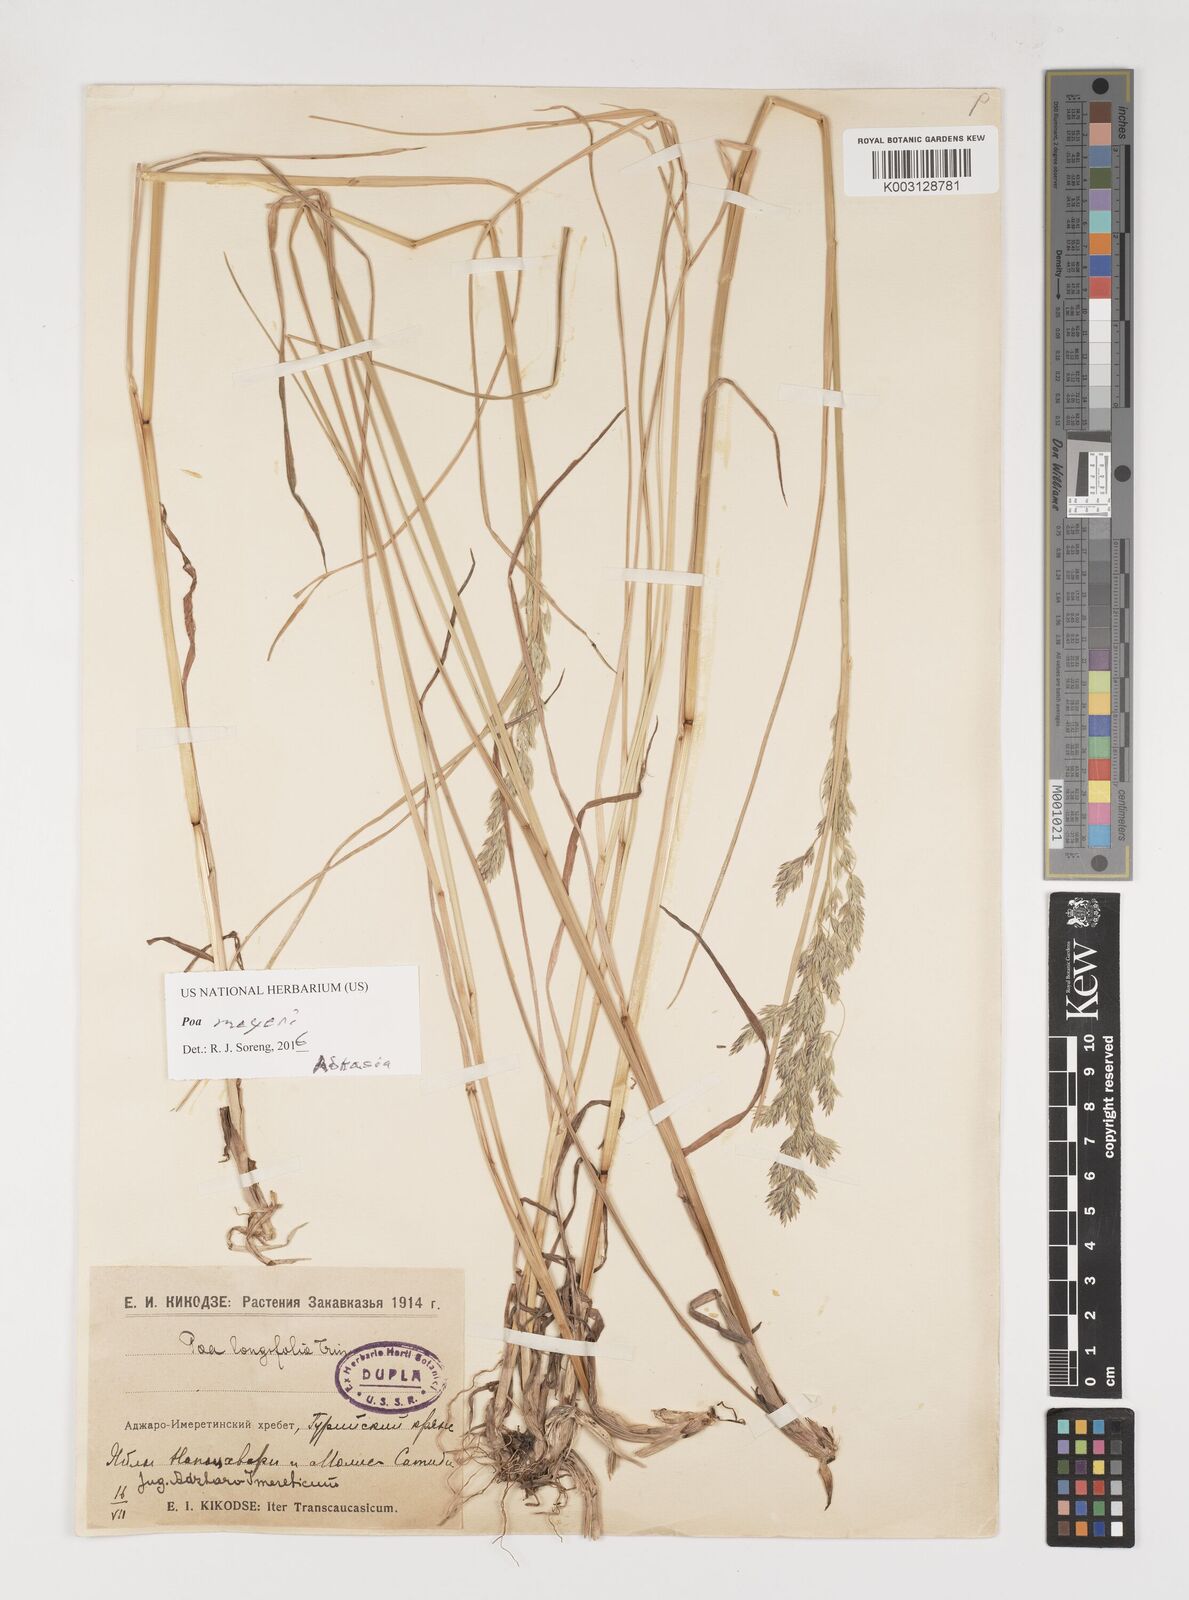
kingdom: Plantae
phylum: Tracheophyta
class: Liliopsida
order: Poales
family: Poaceae
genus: Poa
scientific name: Poa longifolia
